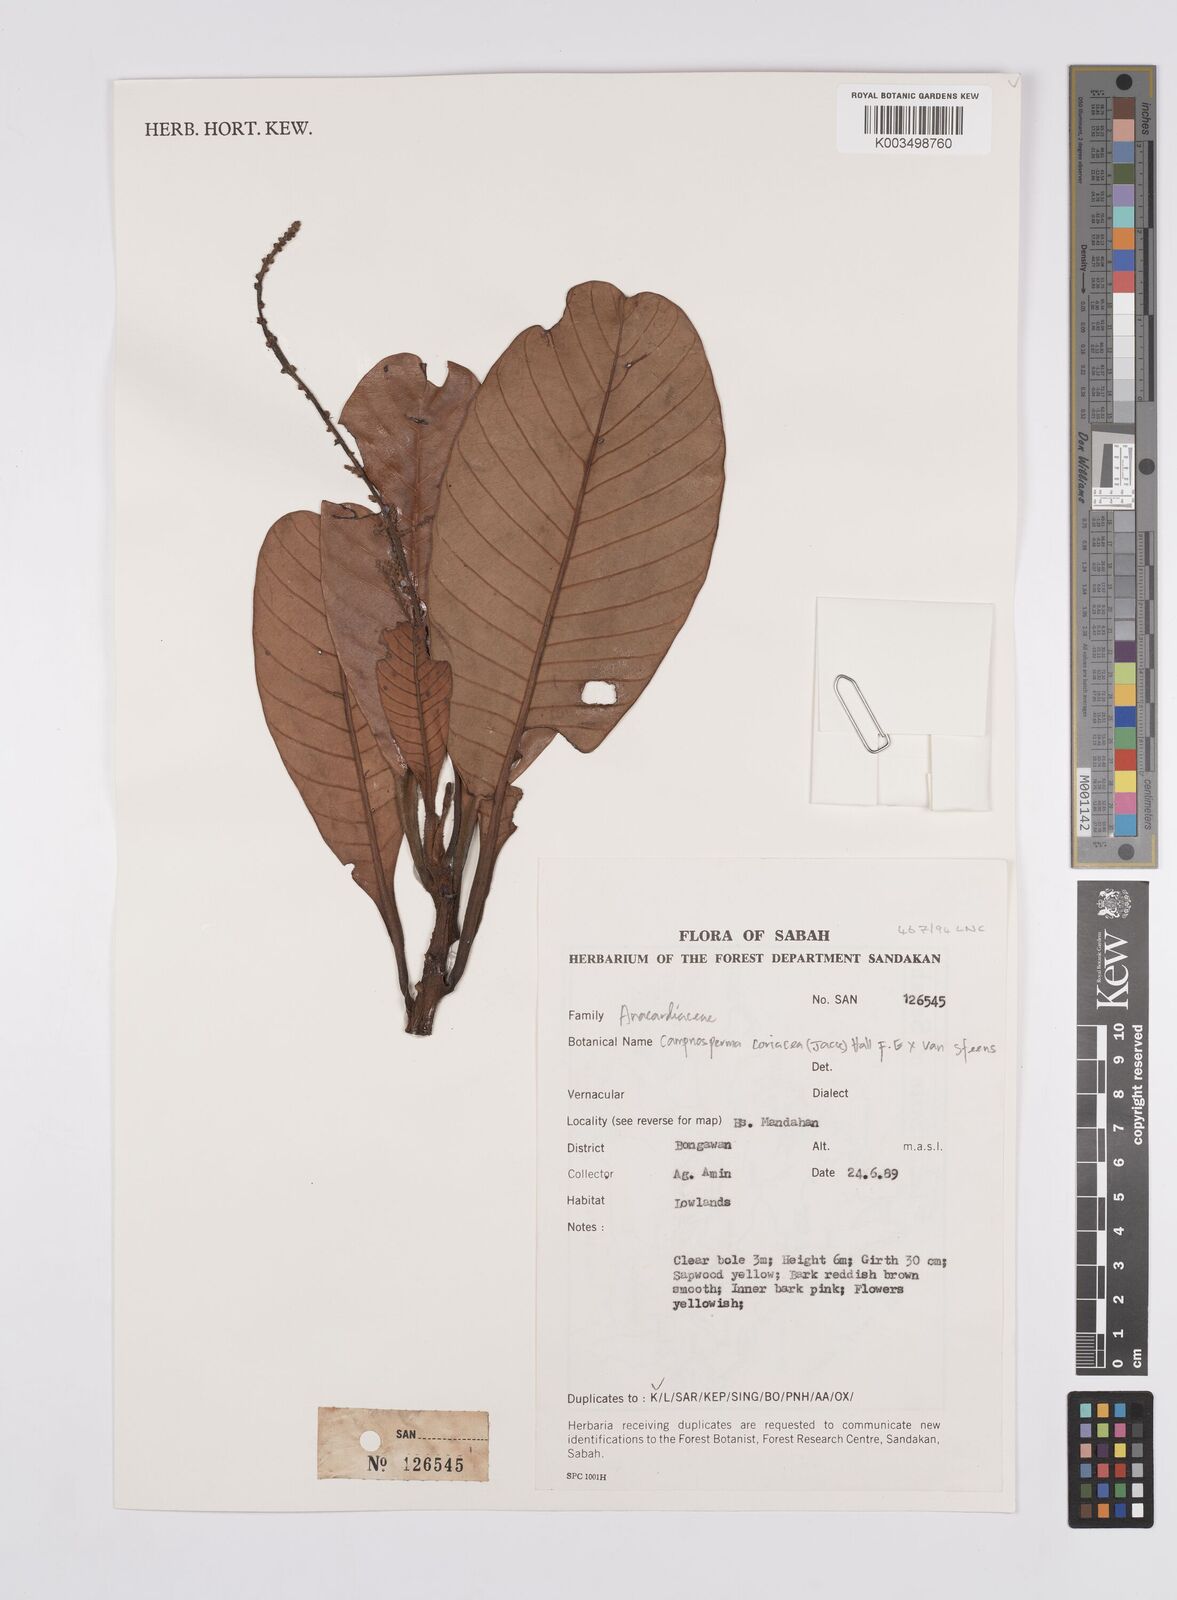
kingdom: Plantae
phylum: Tracheophyta
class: Magnoliopsida
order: Sapindales
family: Anacardiaceae
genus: Campnosperma
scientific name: Campnosperma coriaceum
